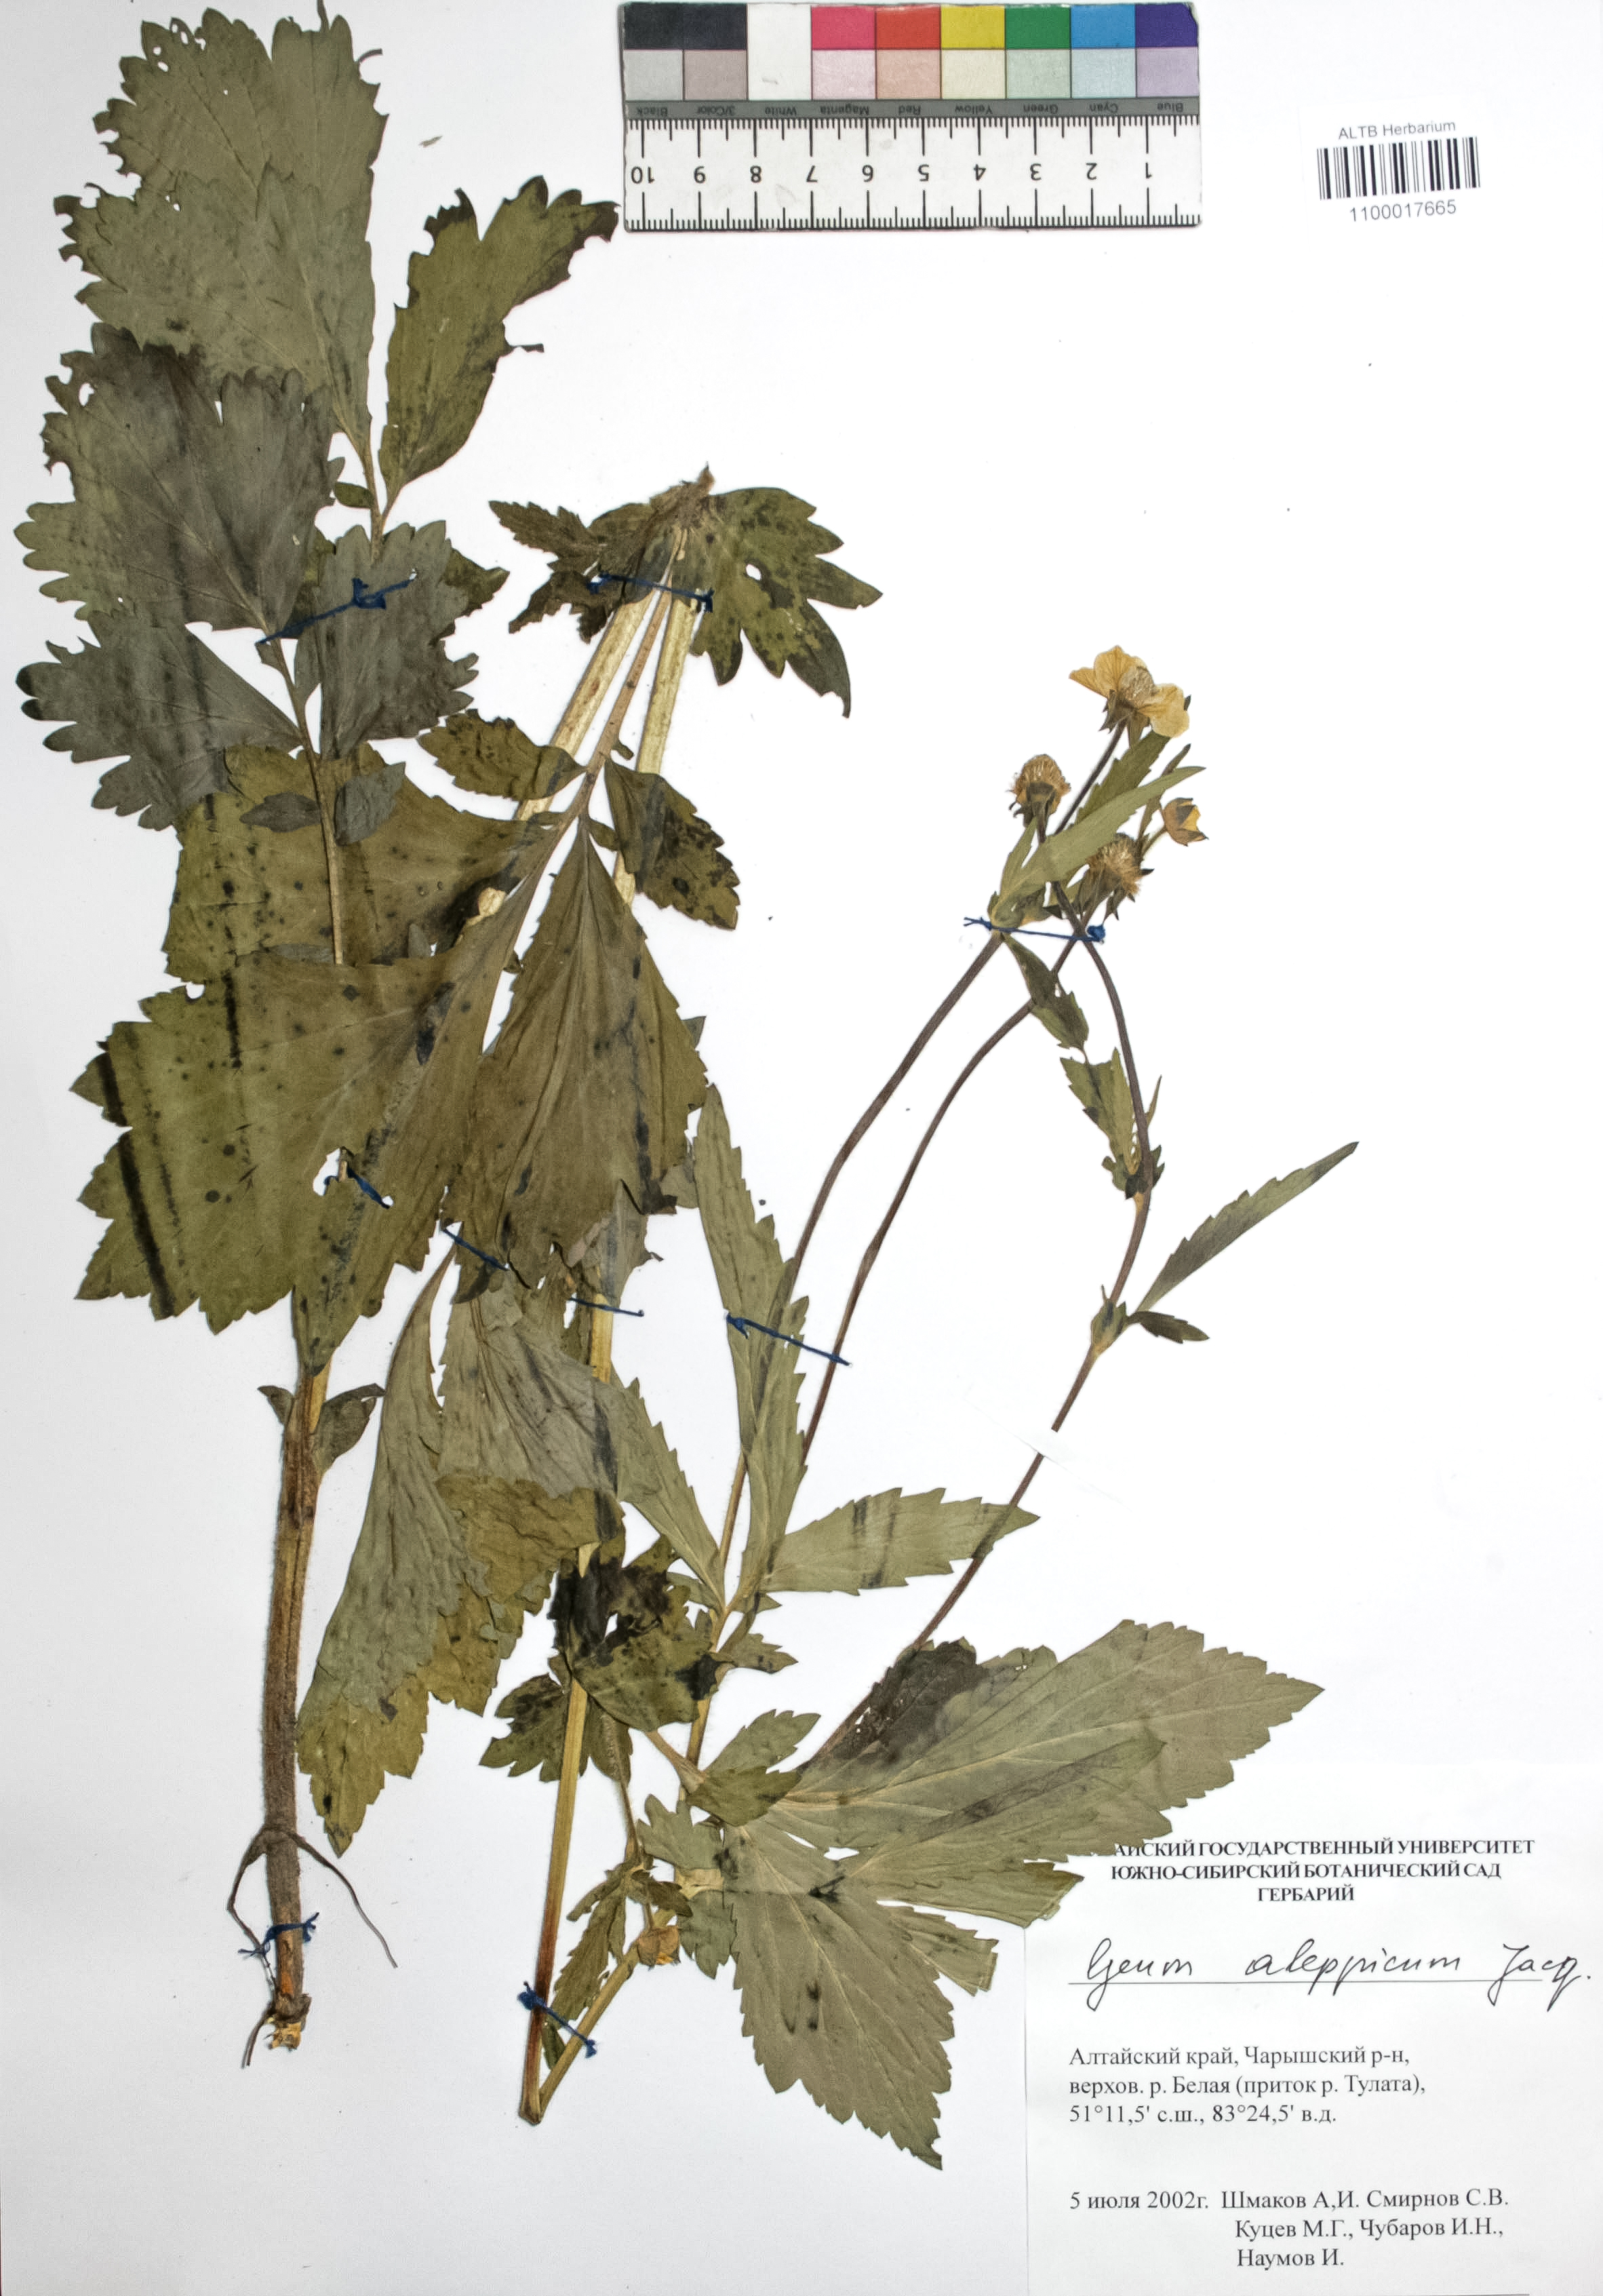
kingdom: Plantae
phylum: Tracheophyta
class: Magnoliopsida
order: Rosales
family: Rosaceae
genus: Geum
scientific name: Geum aleppicum
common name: Yellow avens
